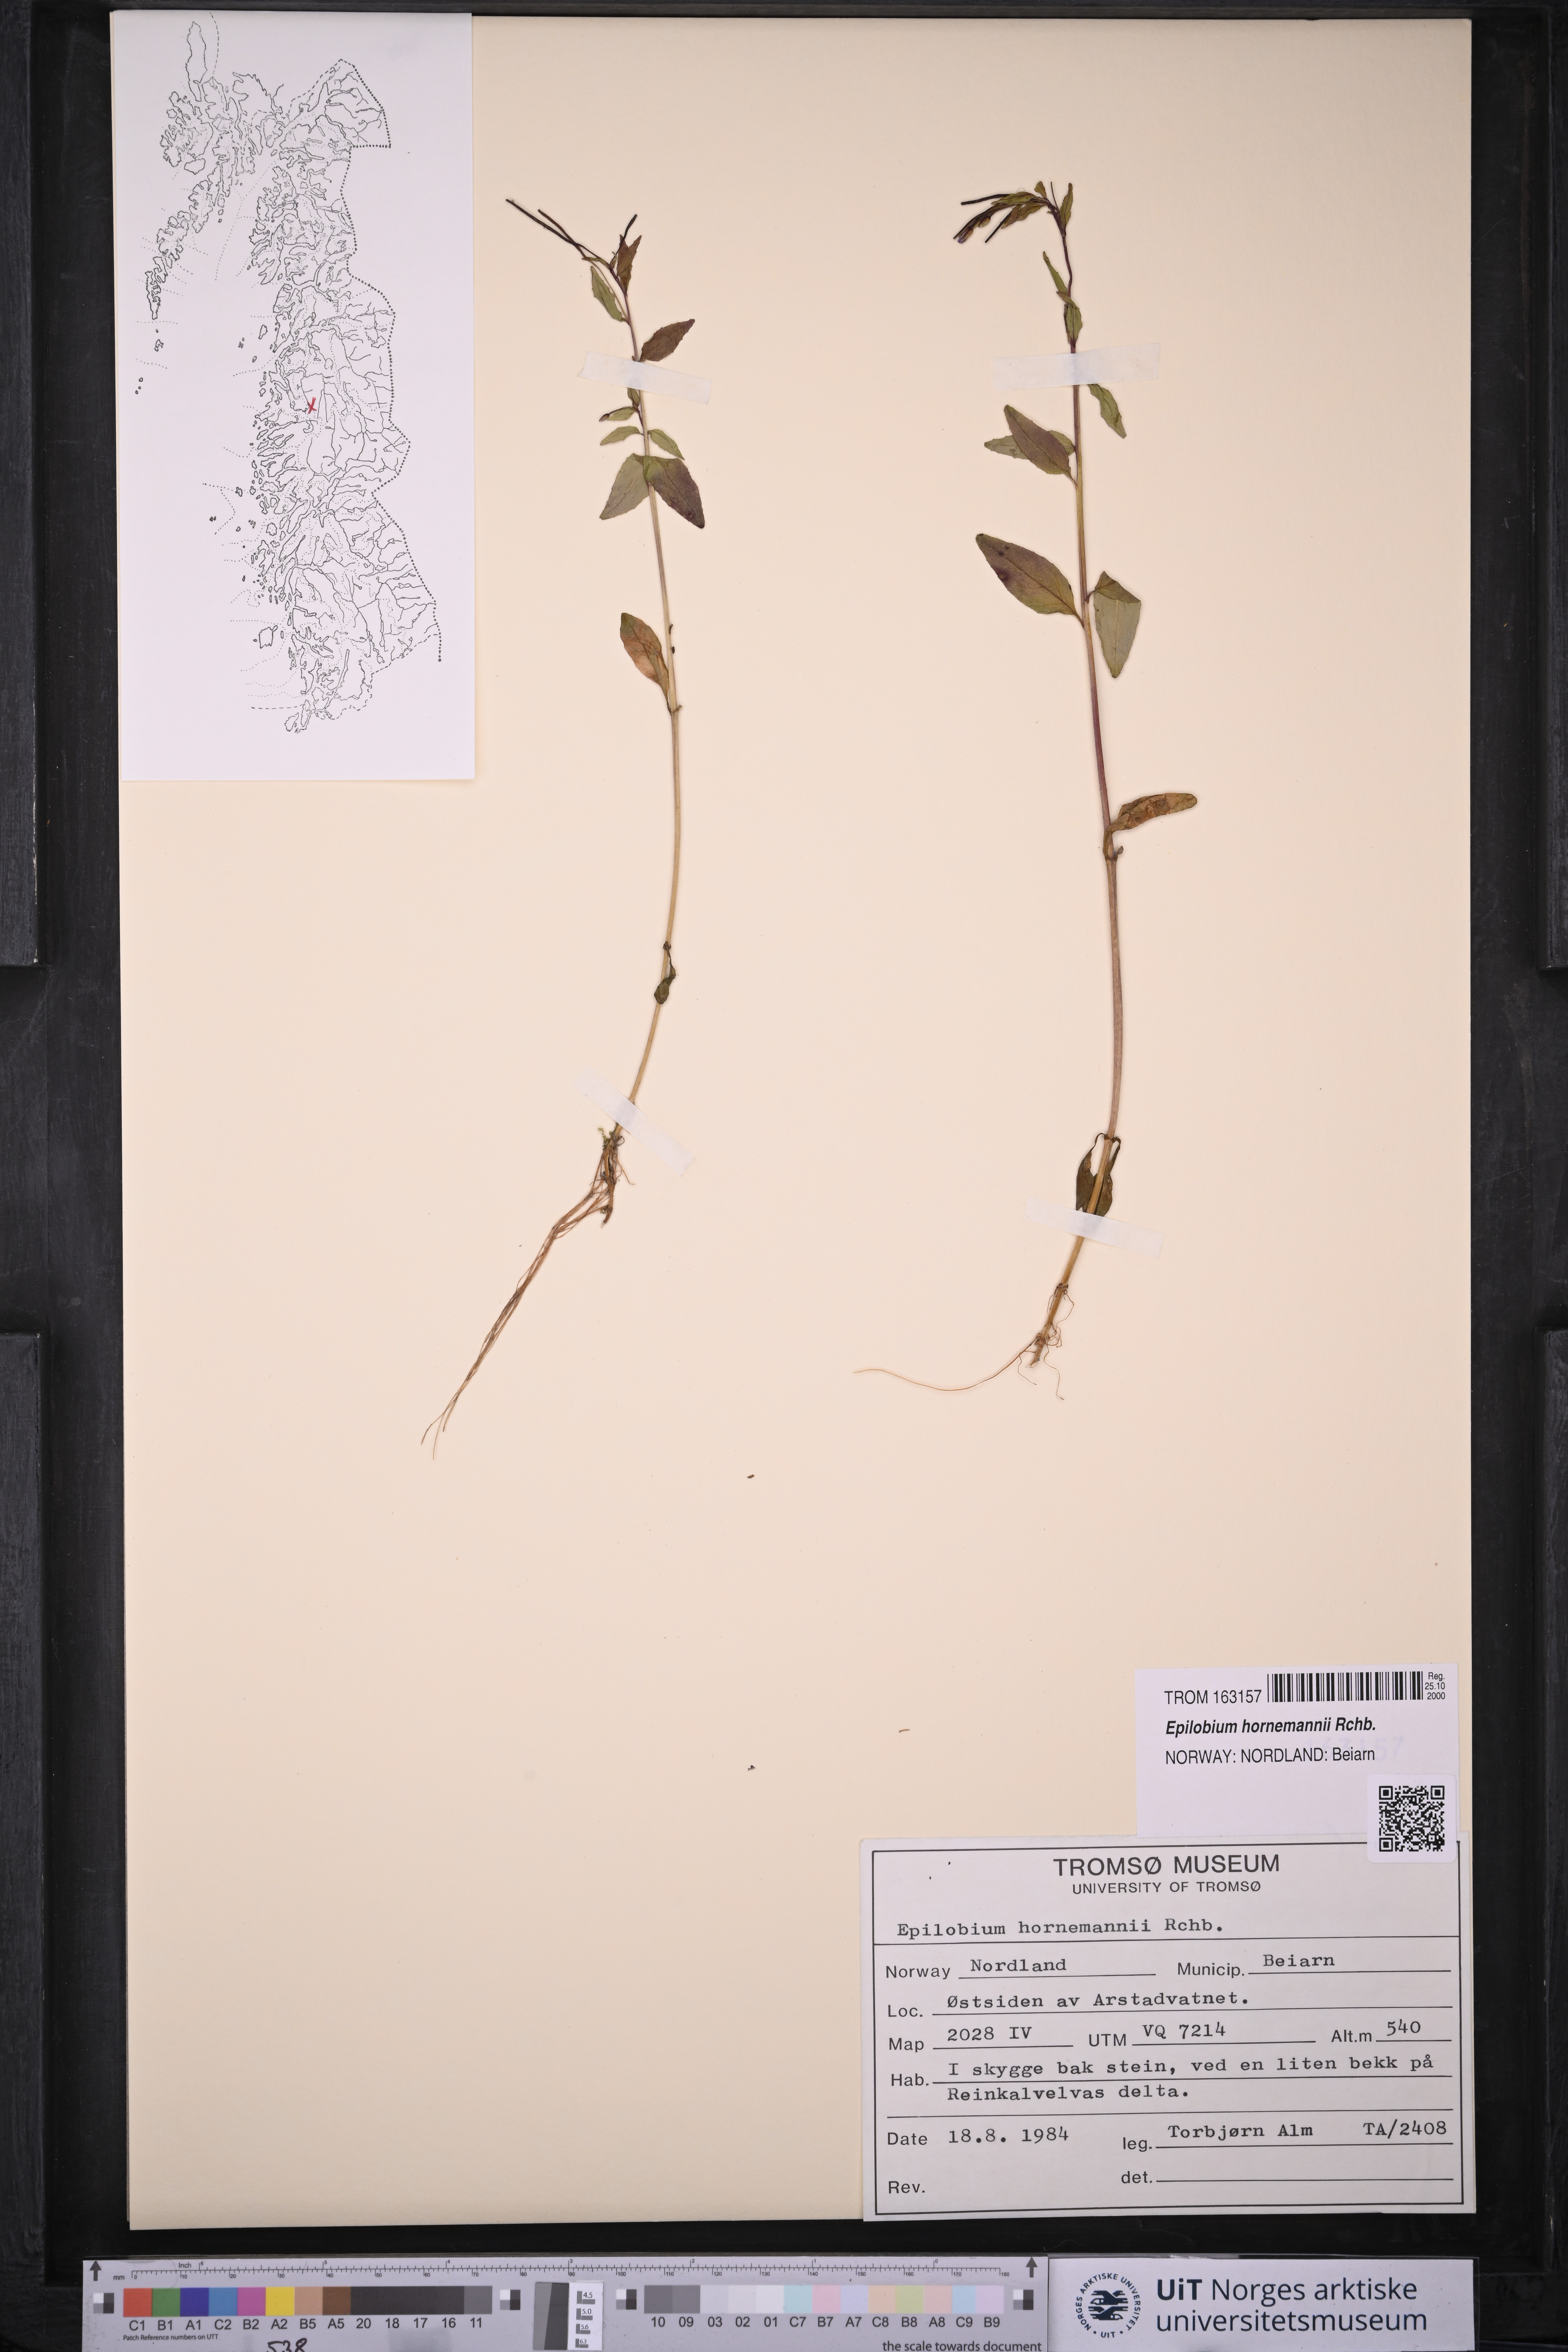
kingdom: Plantae
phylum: Tracheophyta
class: Magnoliopsida
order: Myrtales
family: Onagraceae
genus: Epilobium
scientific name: Epilobium hornemannii
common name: Hornemann's willowherb
